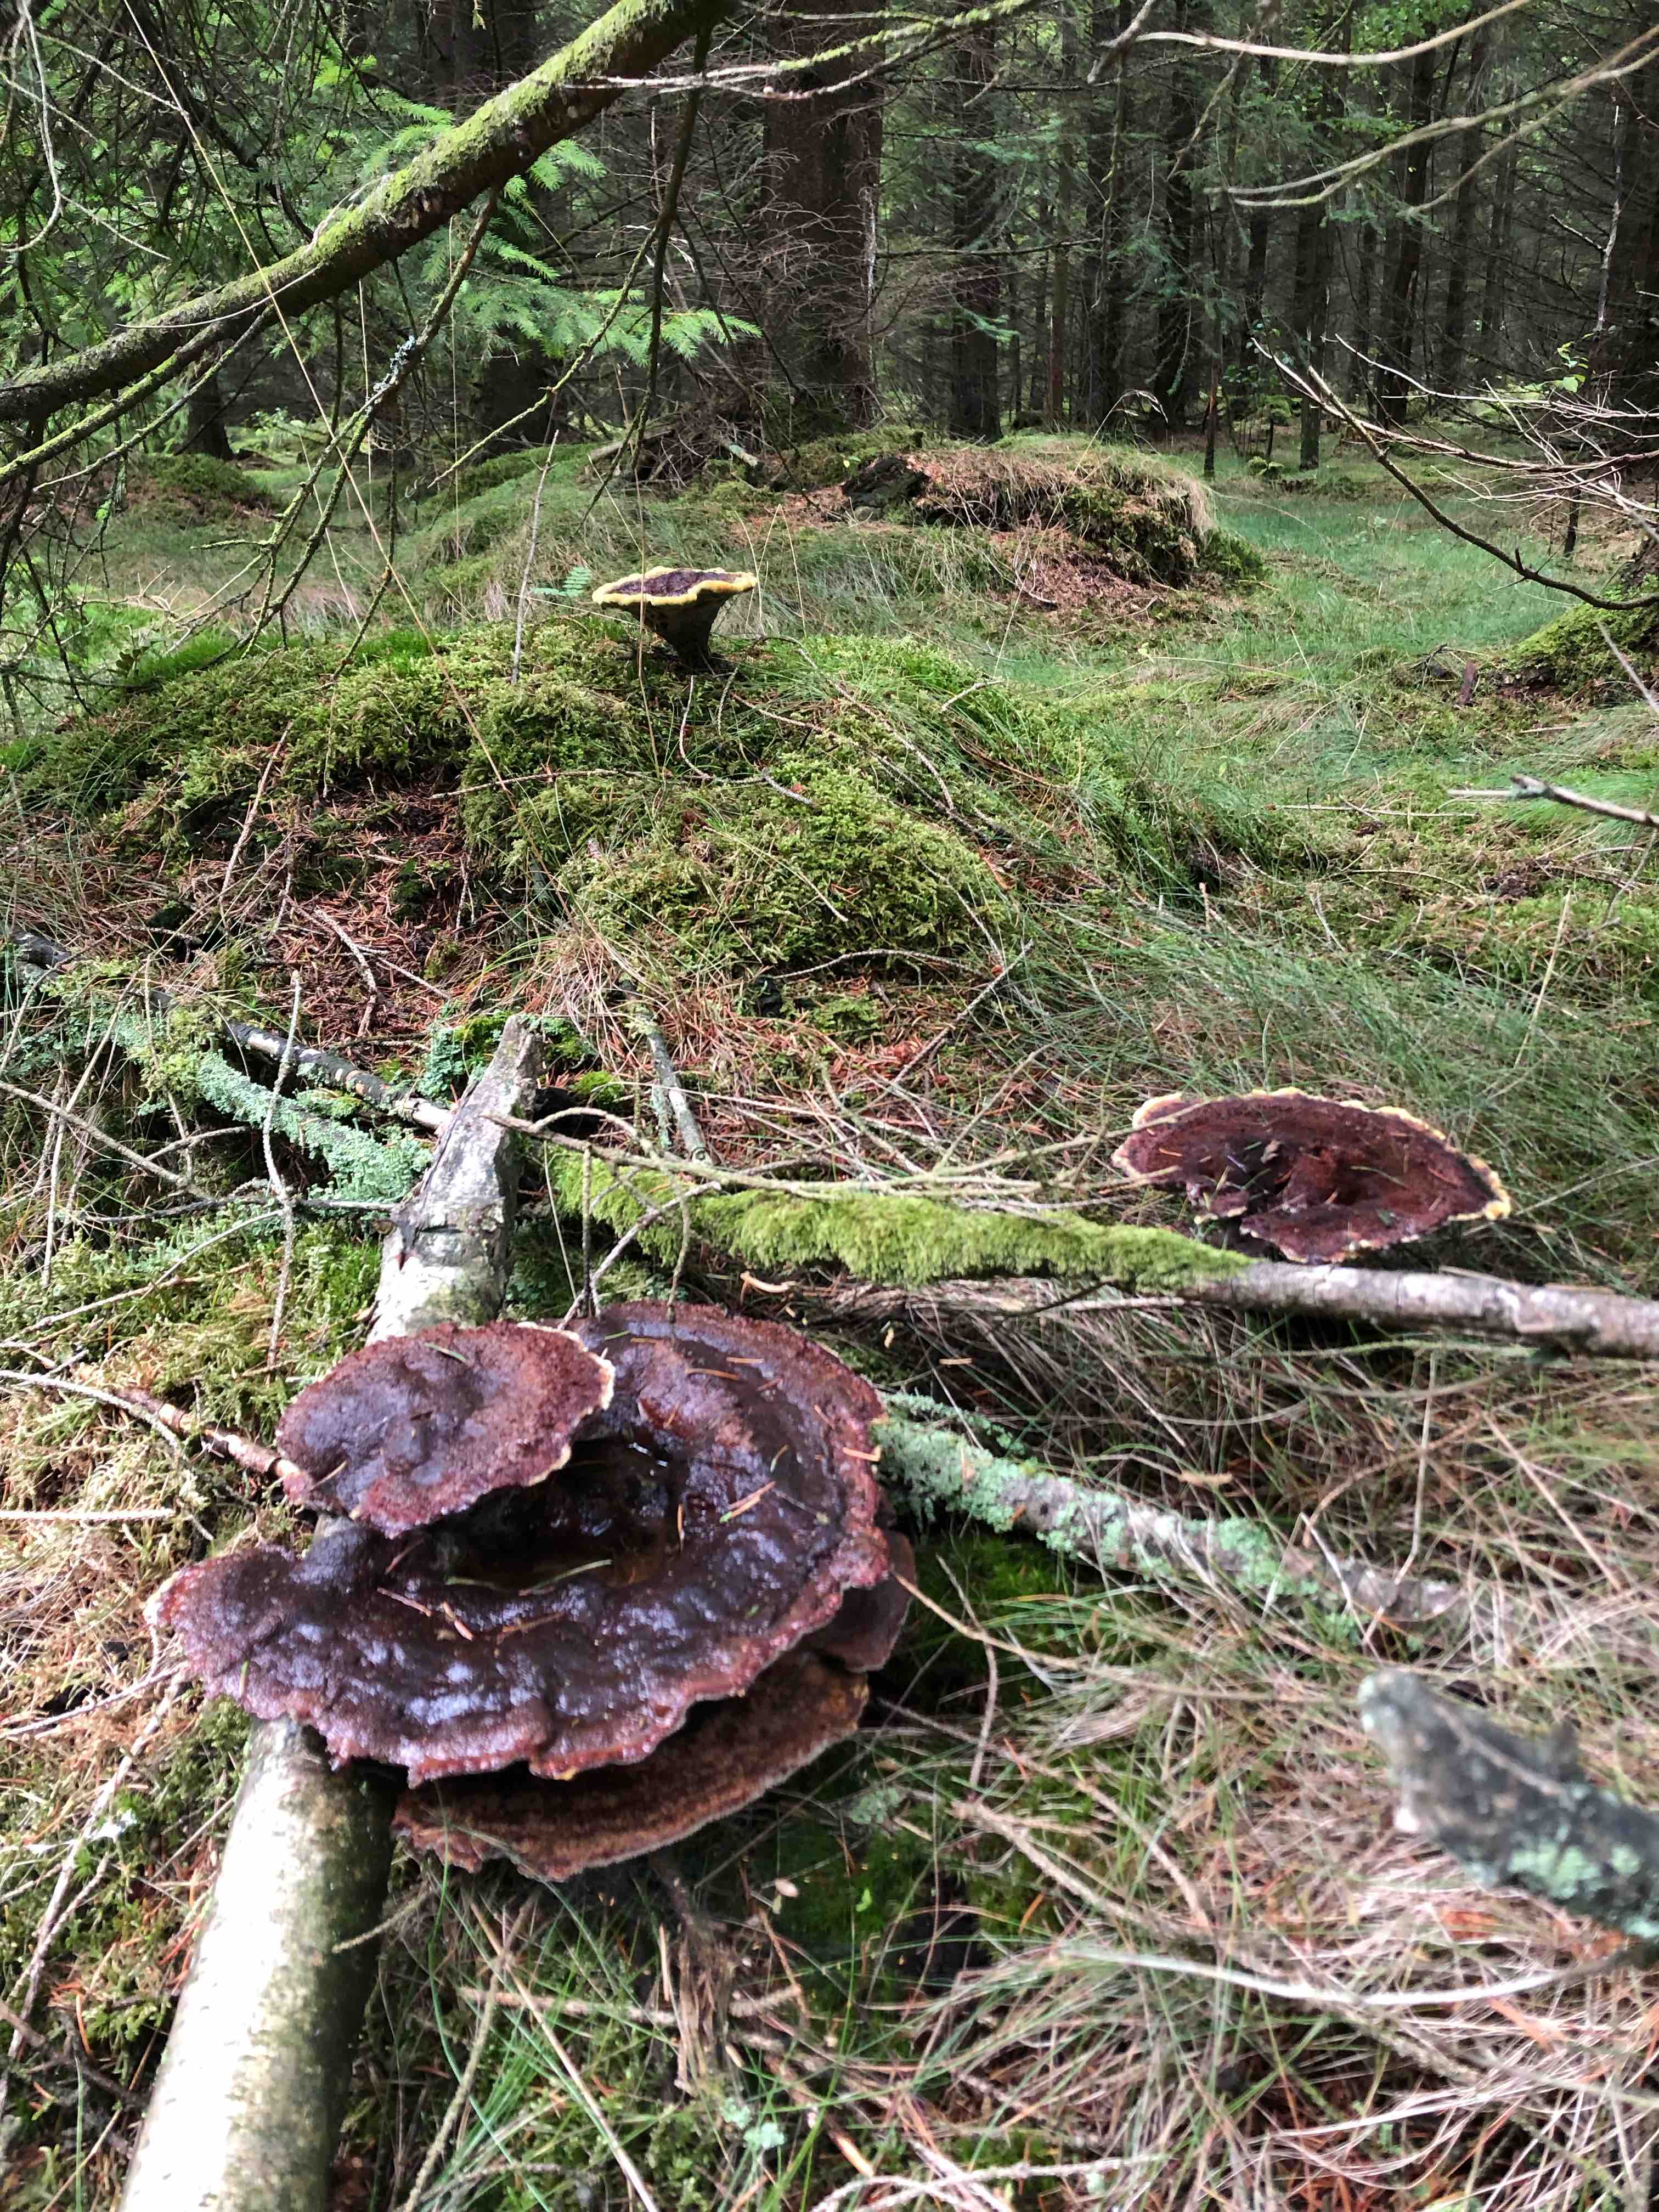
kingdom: Fungi
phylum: Basidiomycota
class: Agaricomycetes
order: Polyporales
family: Laetiporaceae
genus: Phaeolus
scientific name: Phaeolus schweinitzii
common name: brunporesvamp
